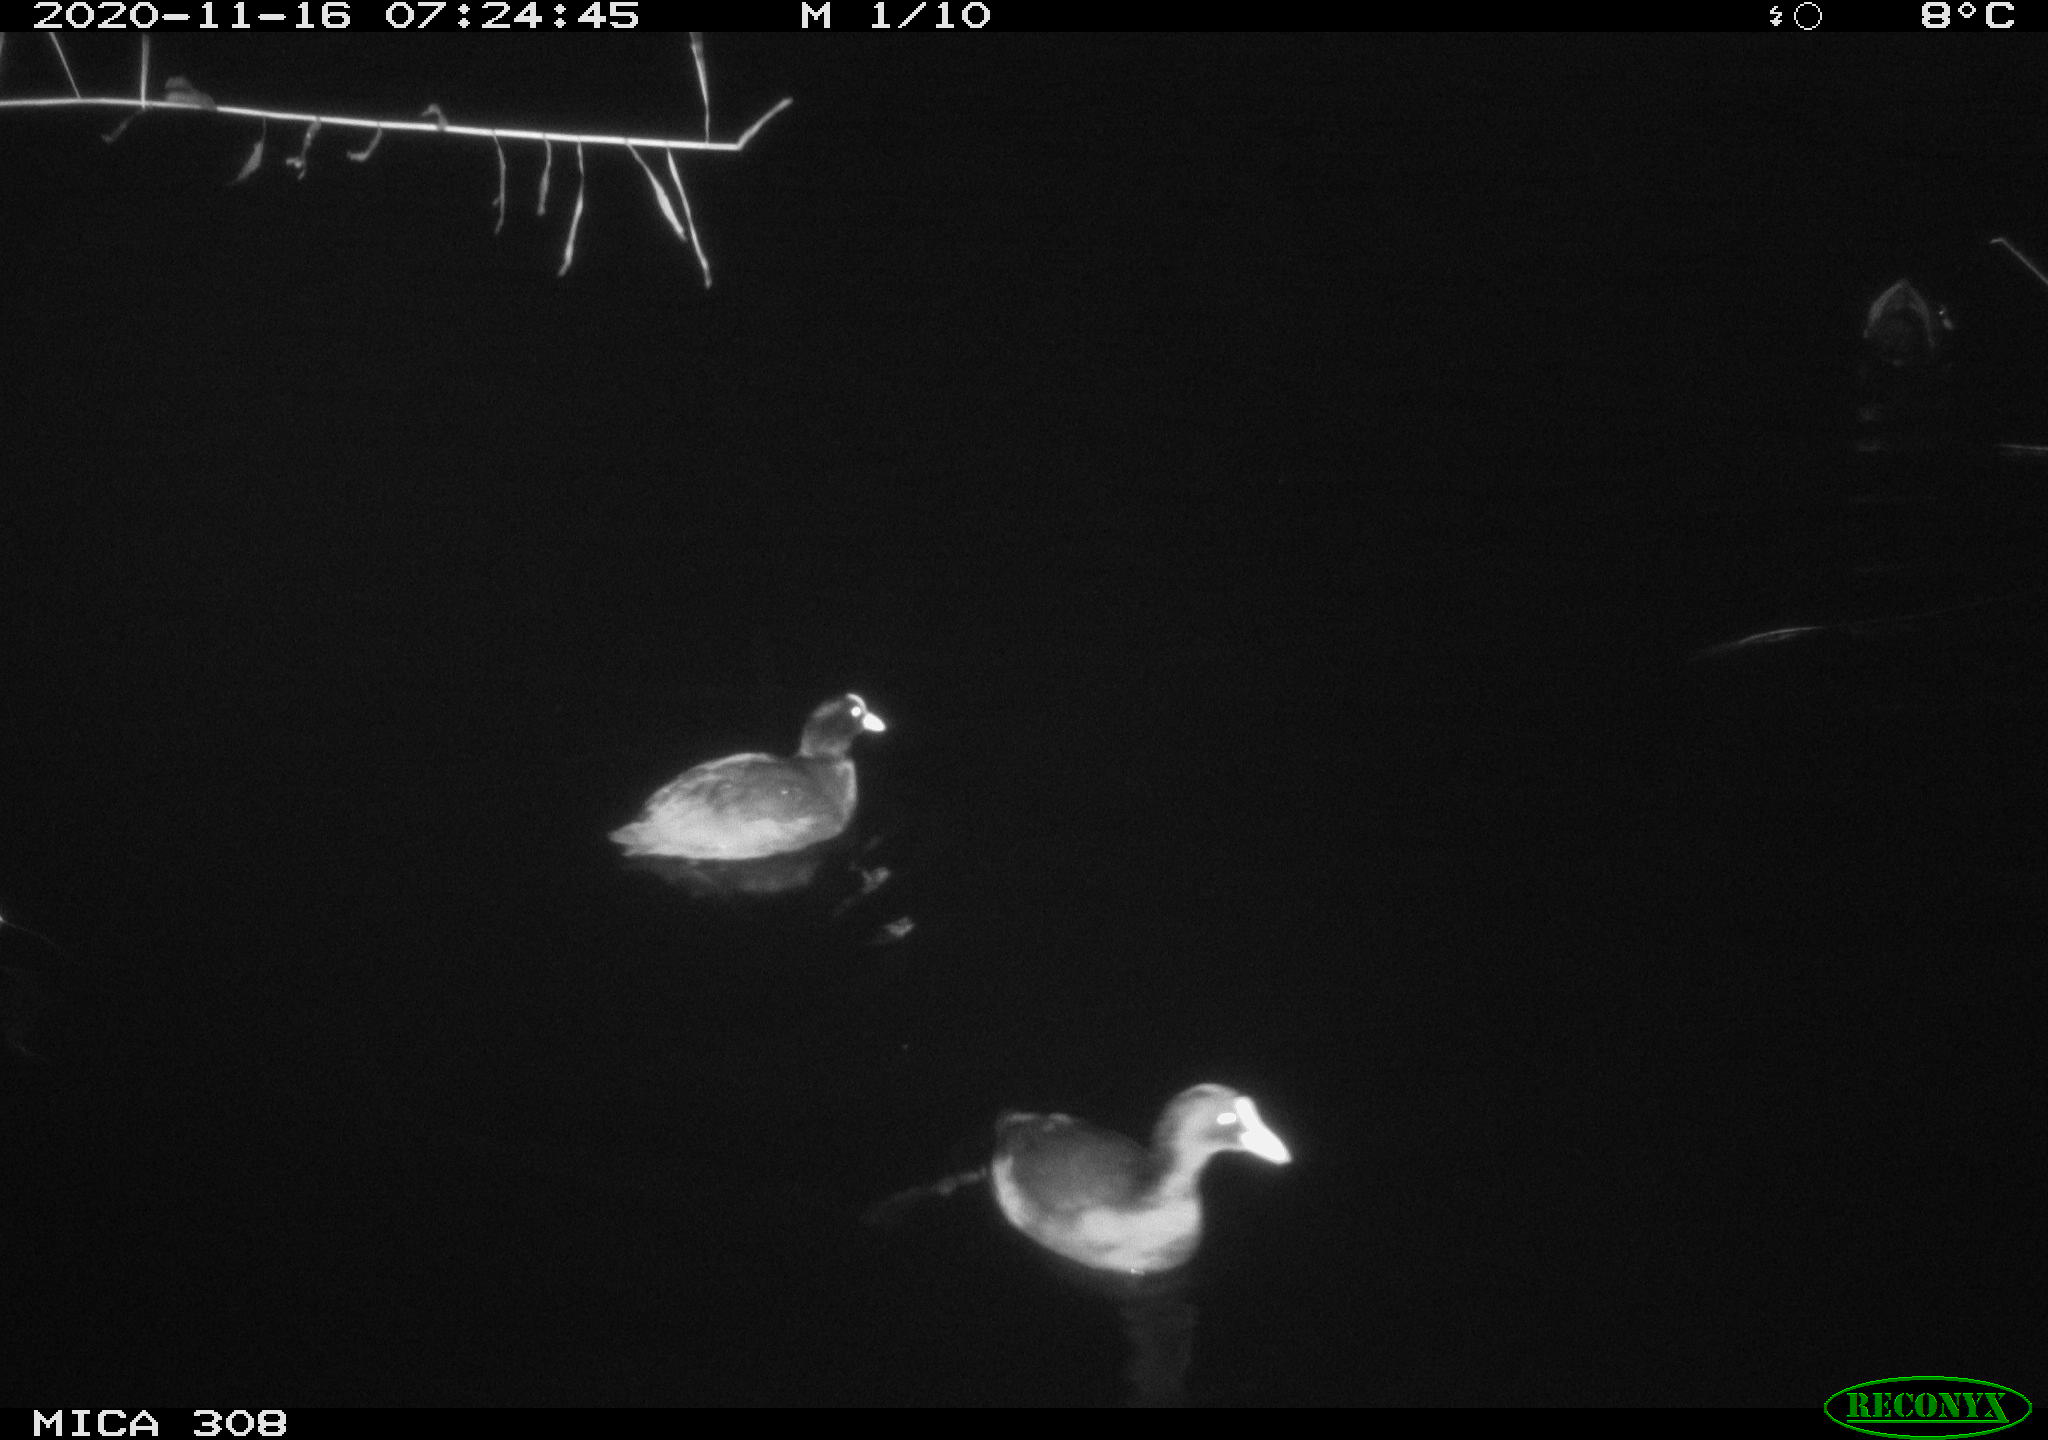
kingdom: Animalia
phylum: Chordata
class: Aves
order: Gruiformes
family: Rallidae
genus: Fulica
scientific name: Fulica atra
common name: Eurasian coot
